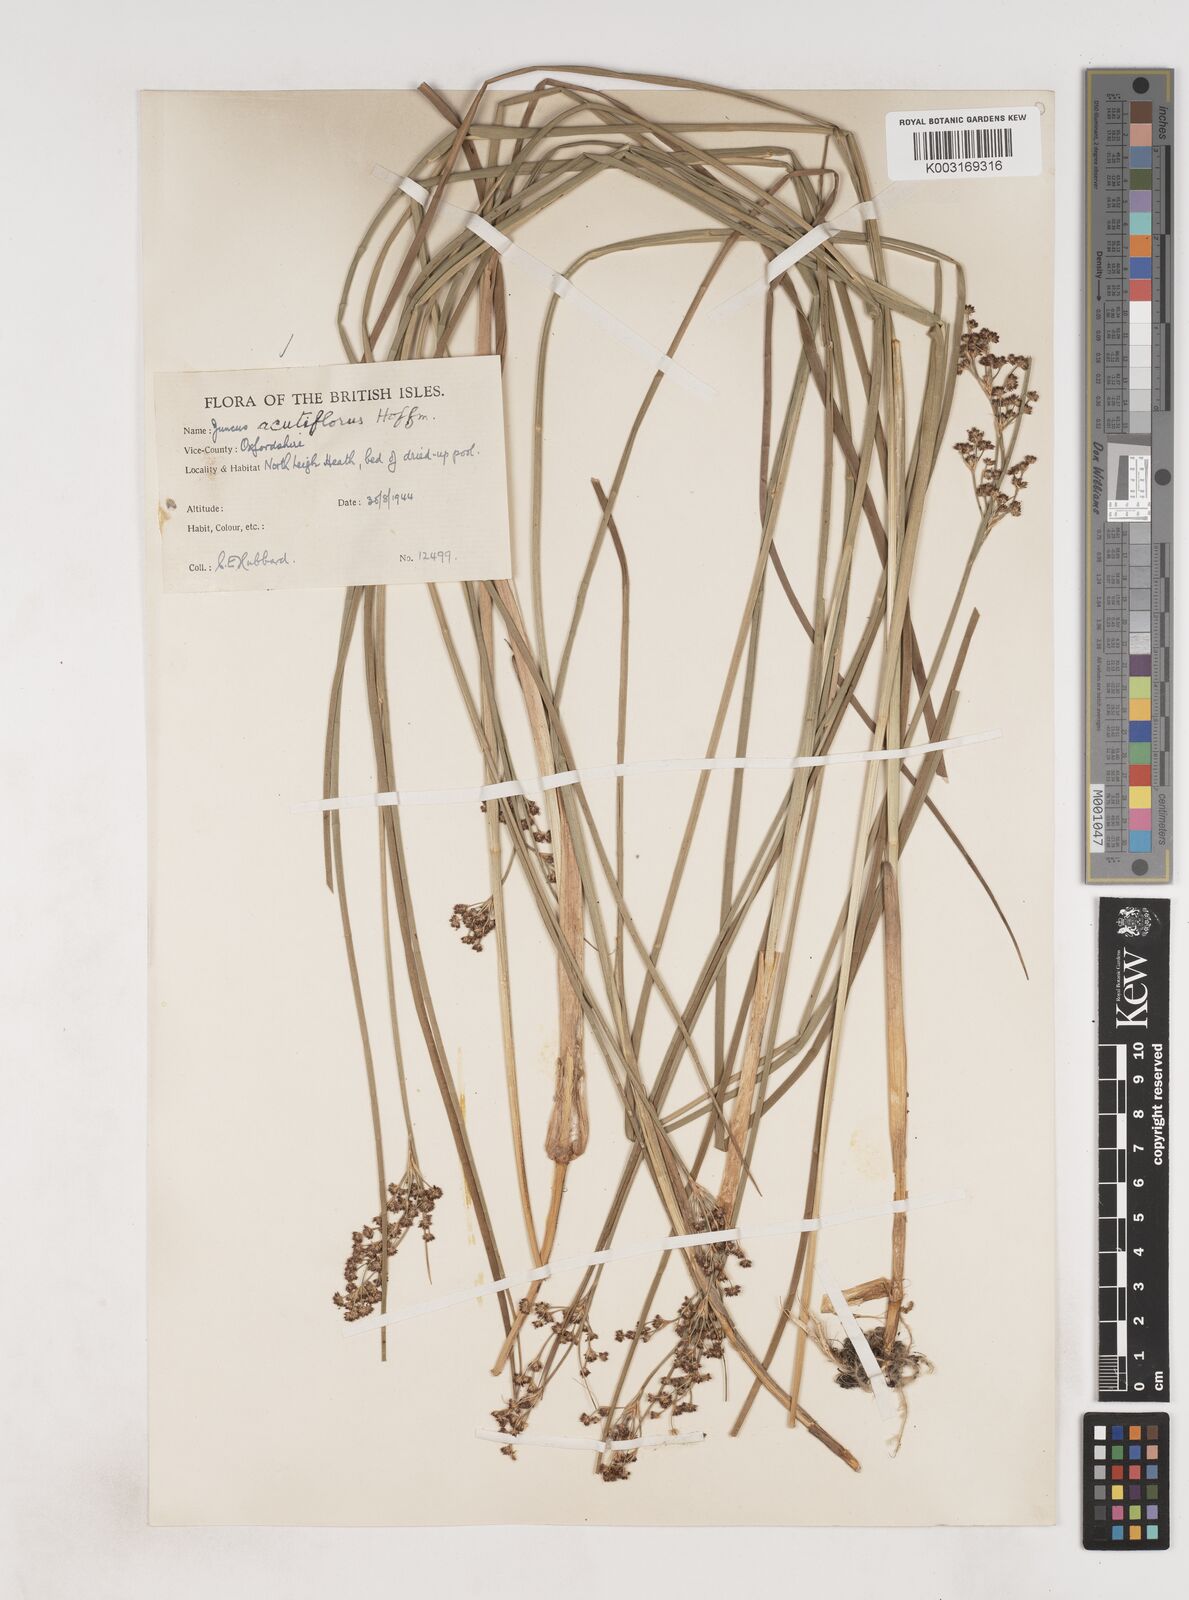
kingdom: Plantae
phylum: Tracheophyta
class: Liliopsida
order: Poales
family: Juncaceae
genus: Juncus
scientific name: Juncus acutiflorus
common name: Sharp-flowered rush
